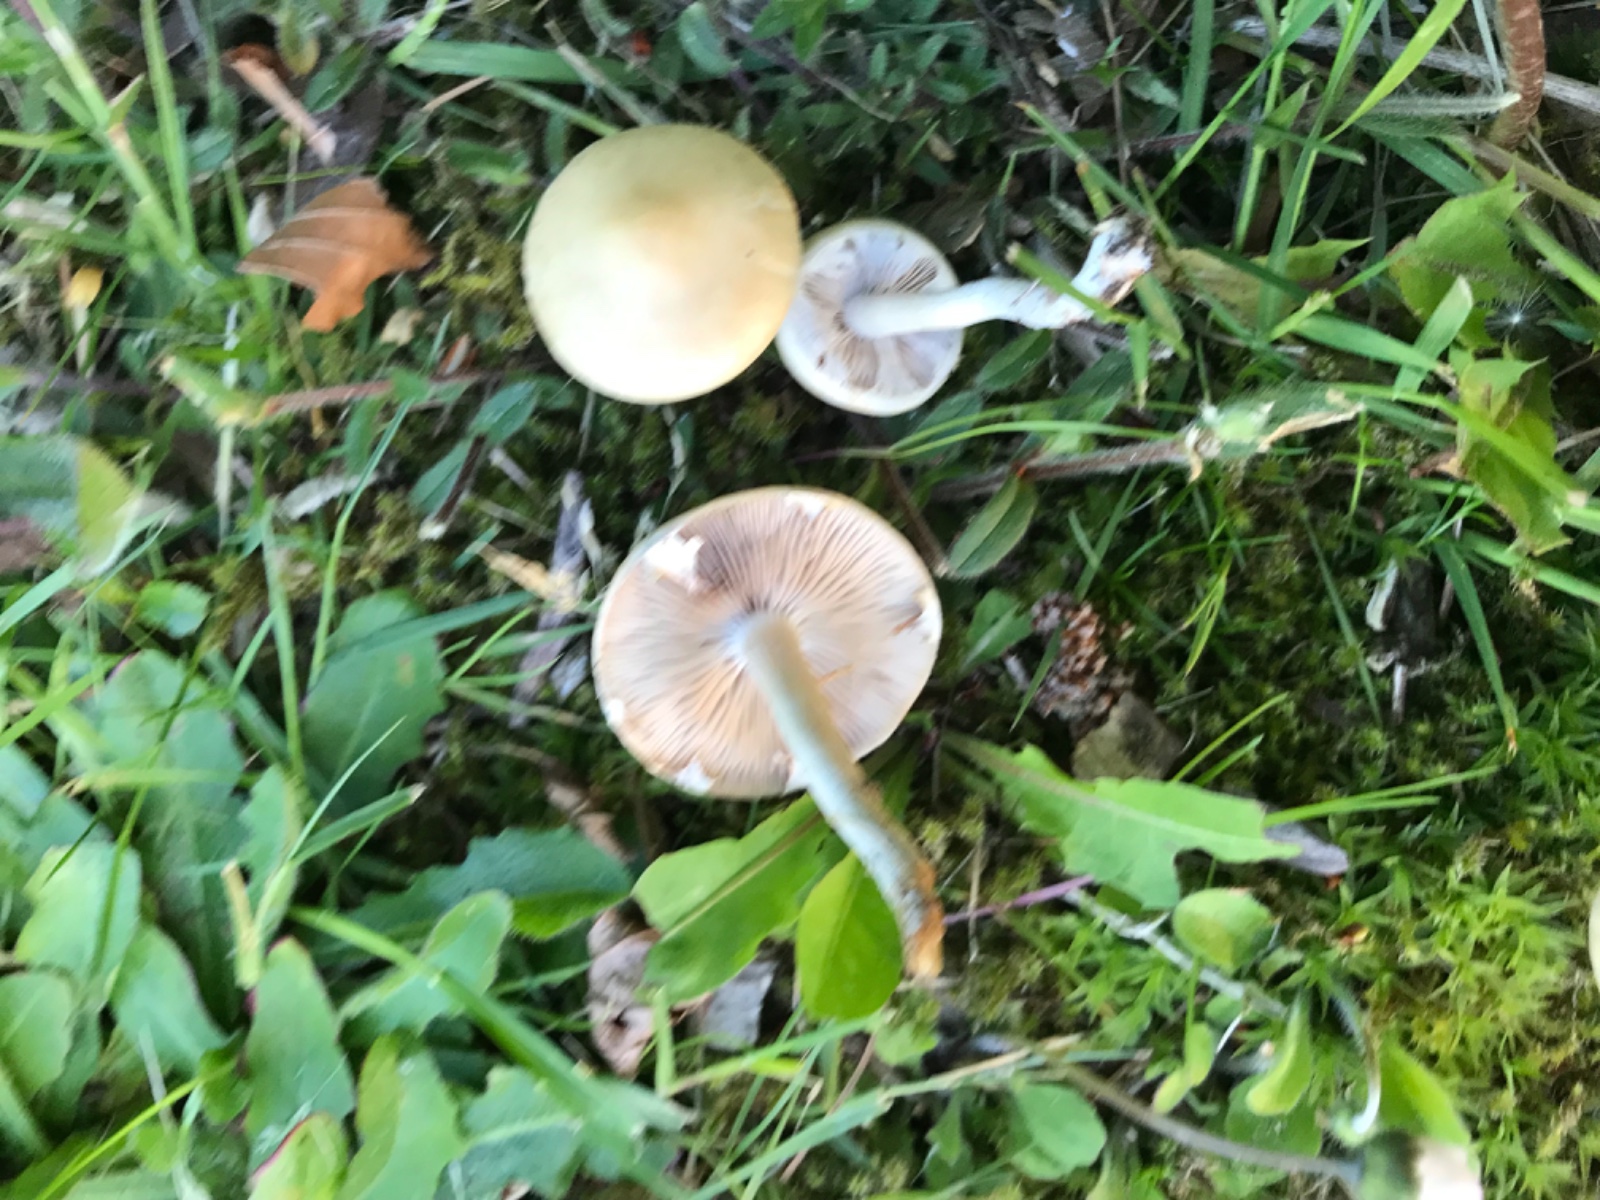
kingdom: Fungi
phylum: Basidiomycota
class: Agaricomycetes
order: Agaricales
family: Strophariaceae
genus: Agrocybe
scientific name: Agrocybe
